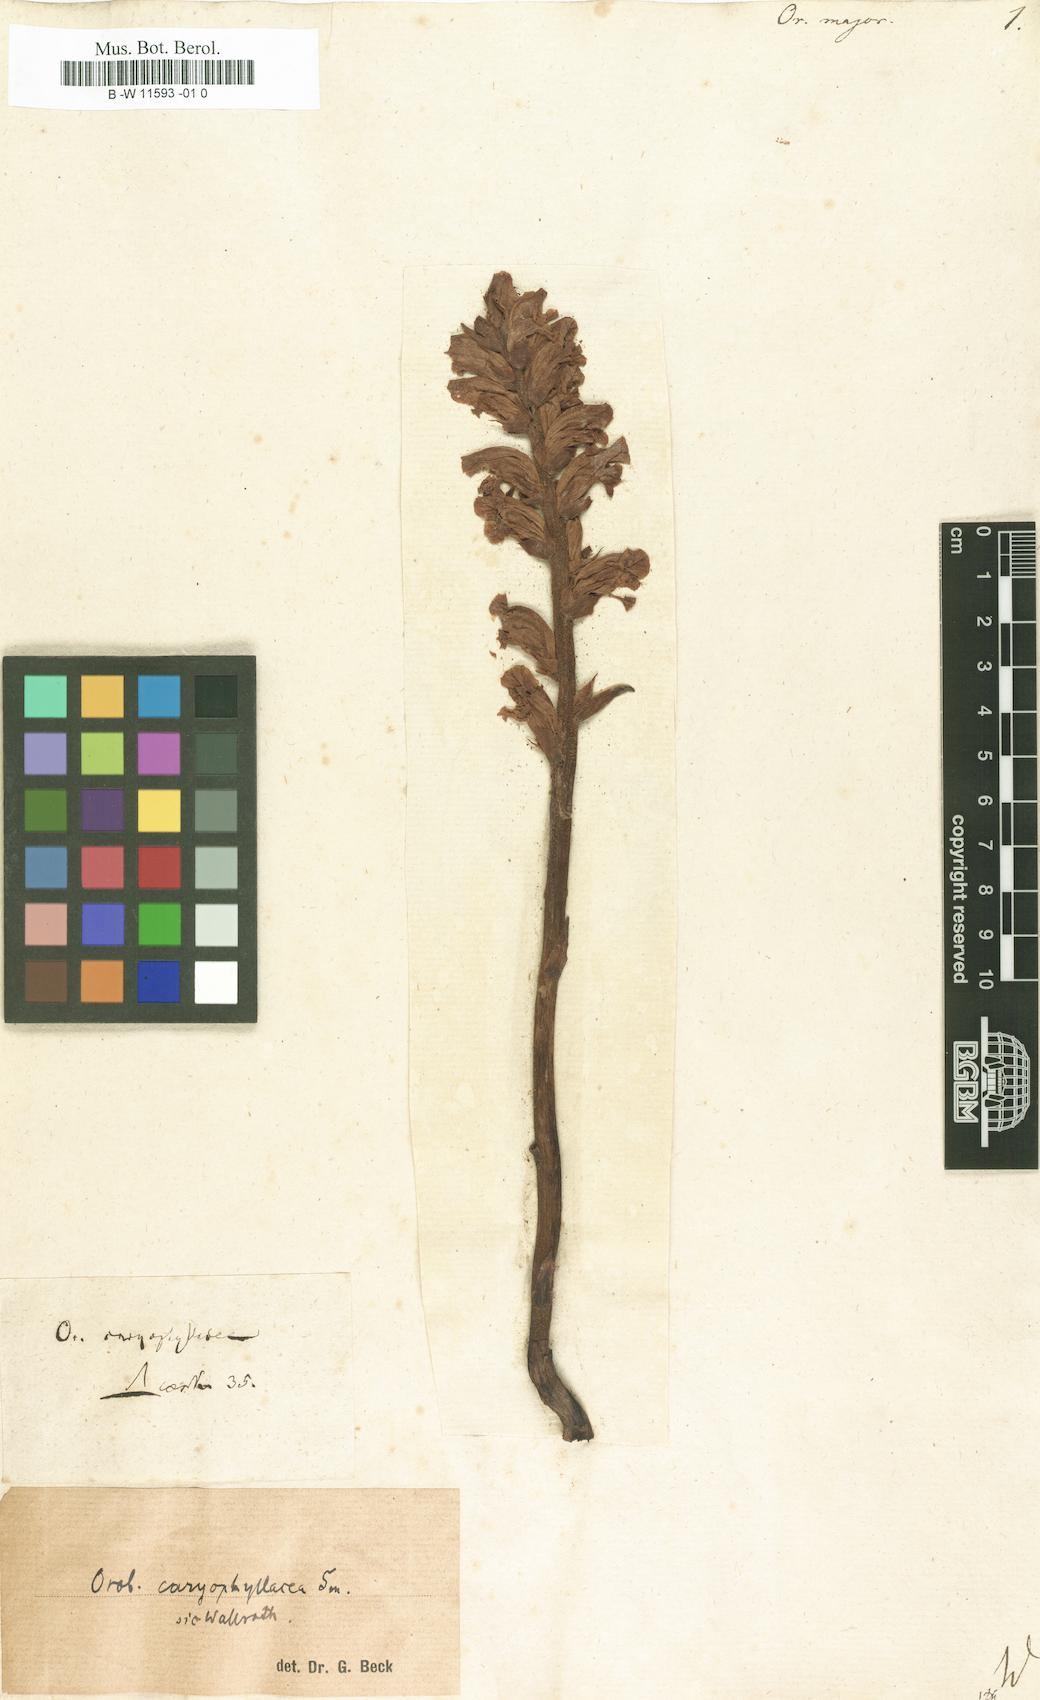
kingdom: Plantae
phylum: Tracheophyta
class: Magnoliopsida
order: Lamiales
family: Orobanchaceae
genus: Orobanche
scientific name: Orobanche major
